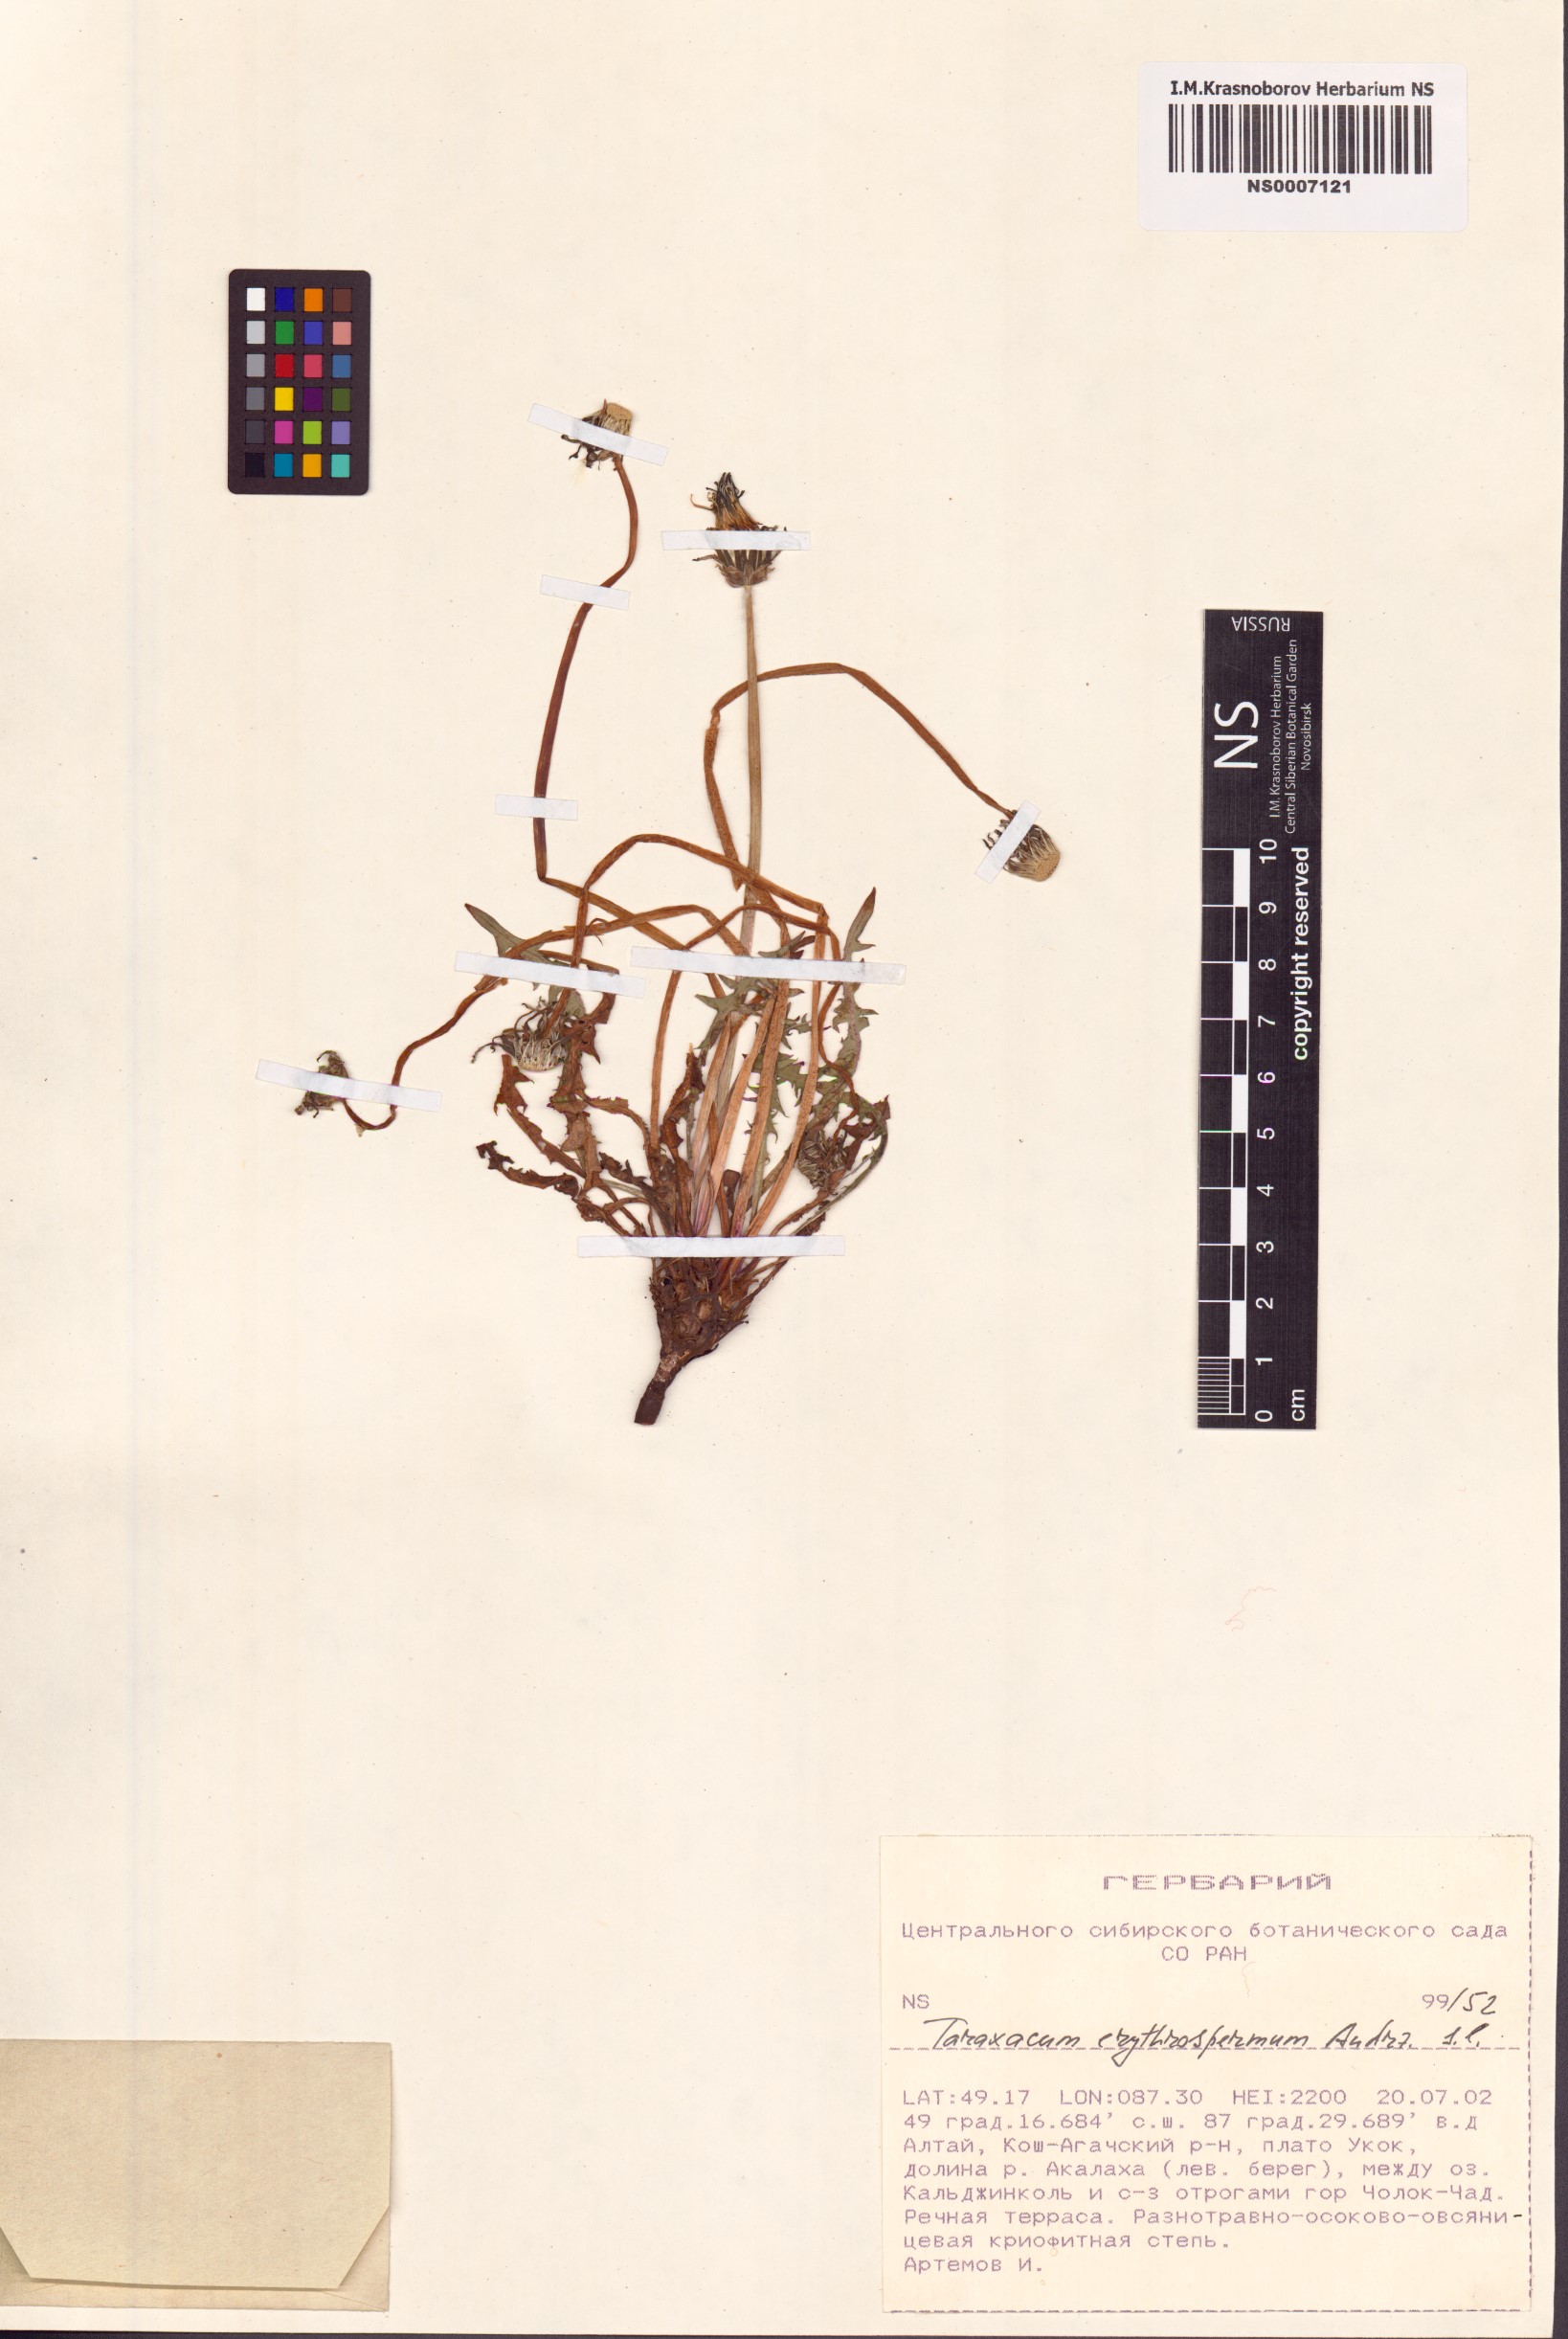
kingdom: Plantae
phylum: Tracheophyta
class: Magnoliopsida
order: Asterales
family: Asteraceae
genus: Taraxacum
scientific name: Taraxacum erythrospermum
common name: Rock dandelion
